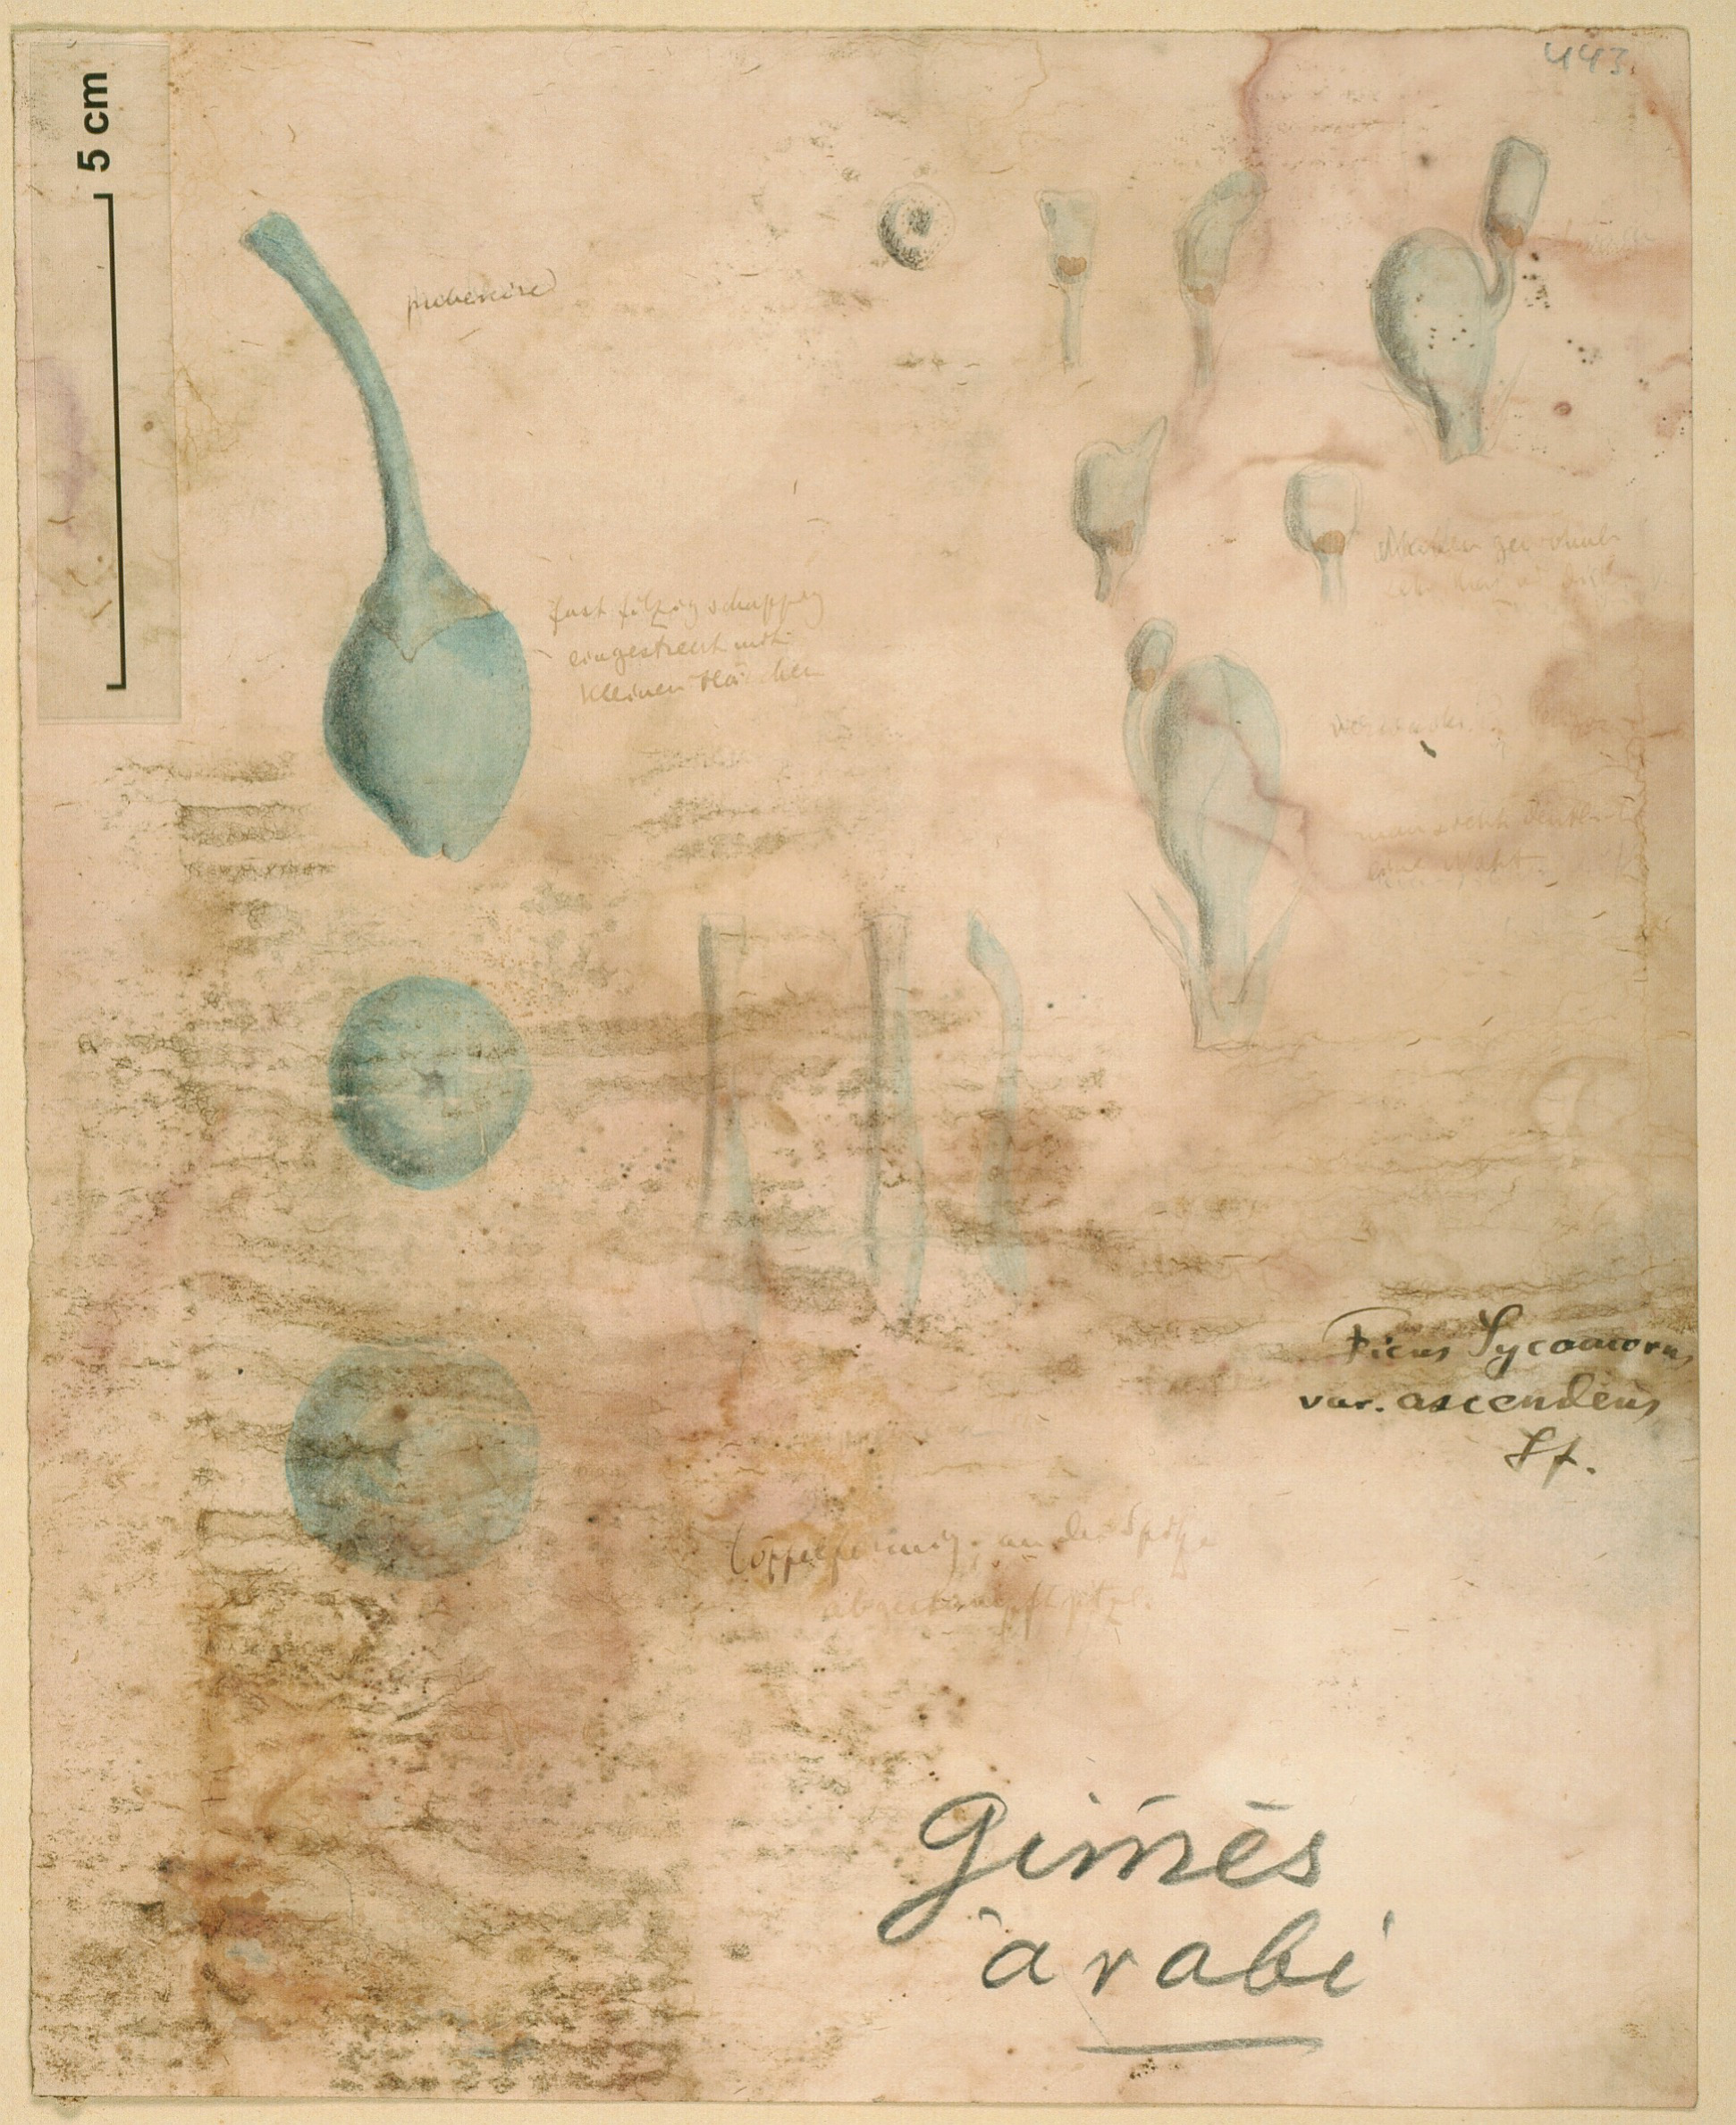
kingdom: Plantae
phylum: Tracheophyta
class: Magnoliopsida
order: Rosales
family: Moraceae
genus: Ficus
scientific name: Ficus sycomorus
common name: Sycomore
